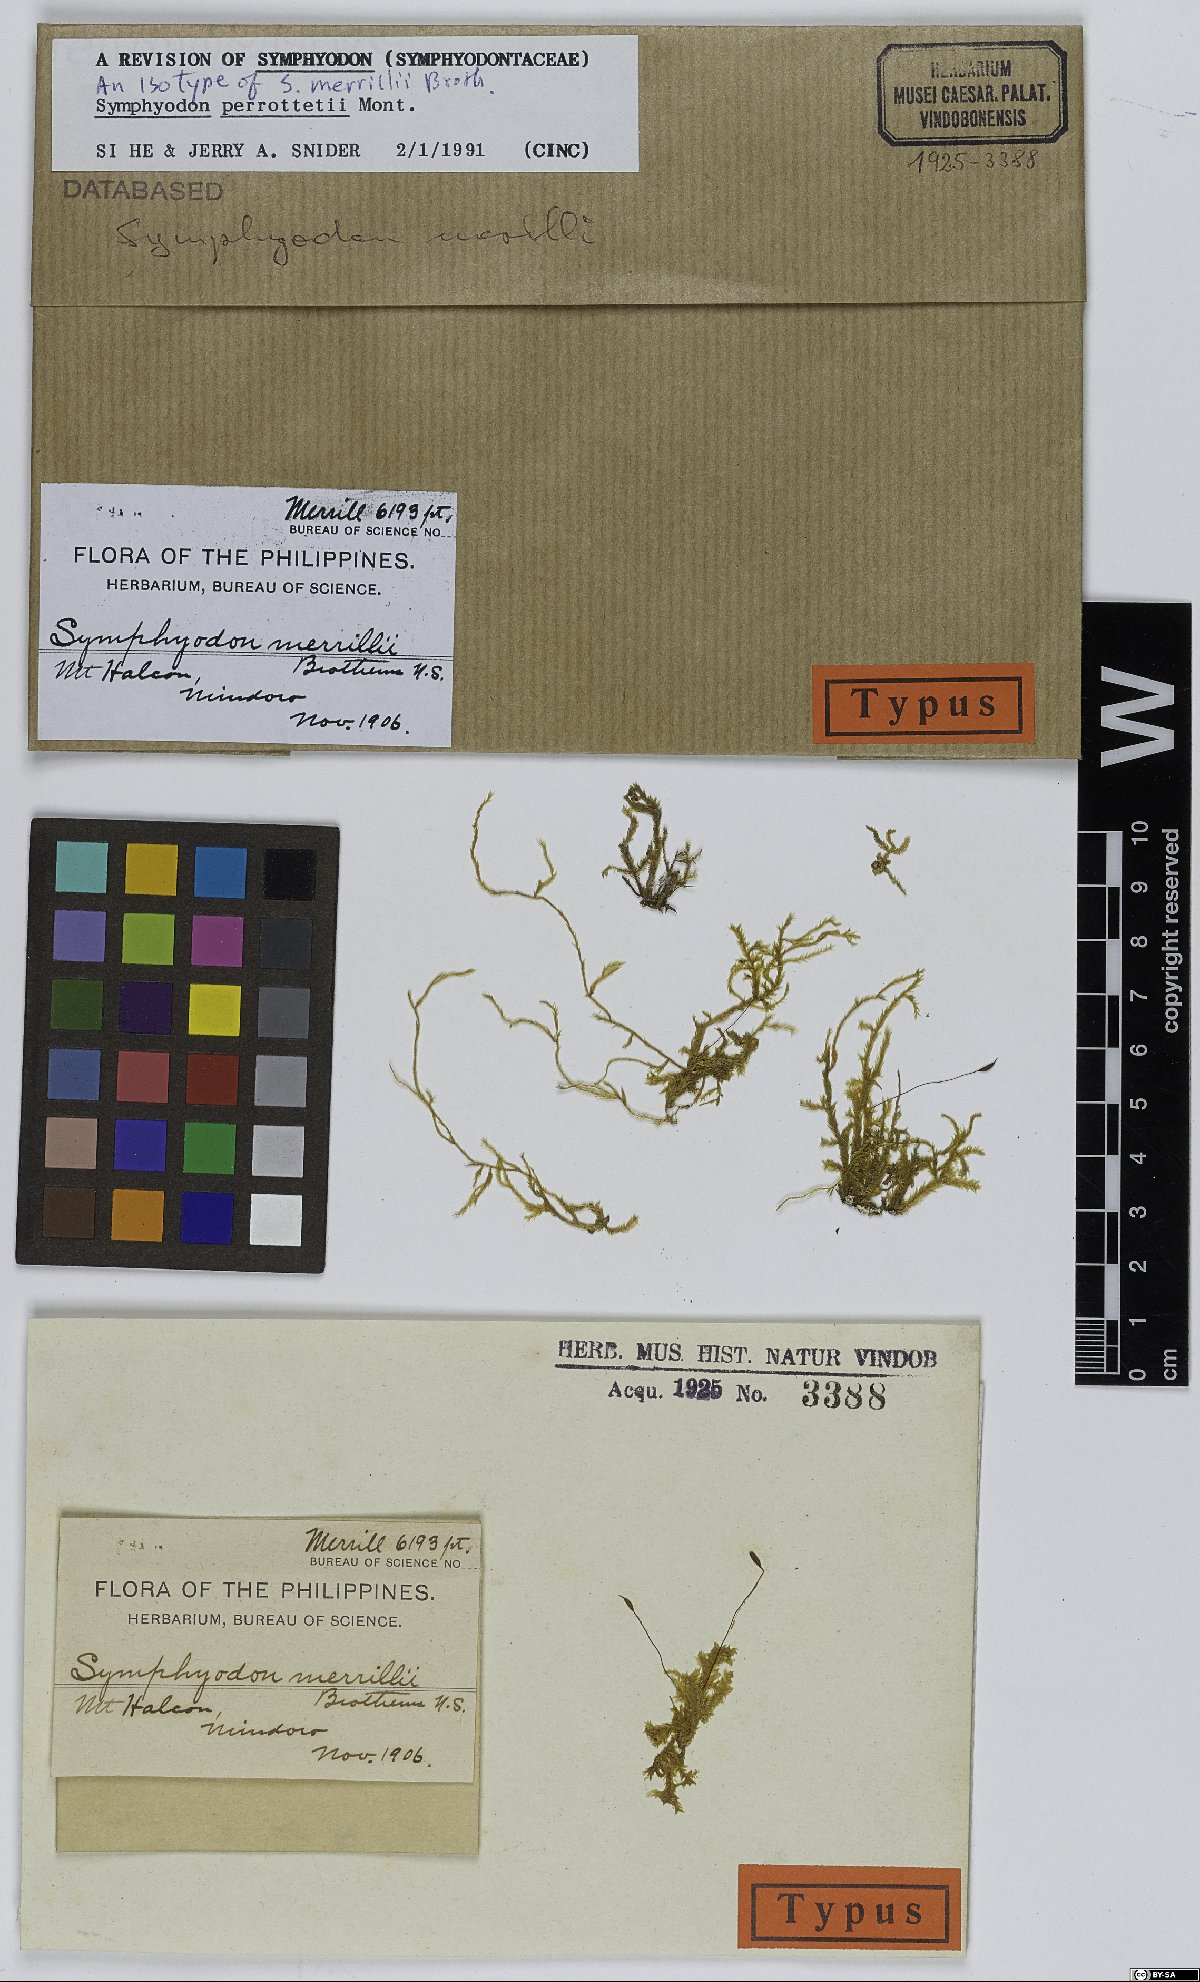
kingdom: Plantae
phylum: Bryophyta
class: Bryopsida
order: Hypnales
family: Symphyodontaceae
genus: Symphyodon
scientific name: Symphyodon merrillii
